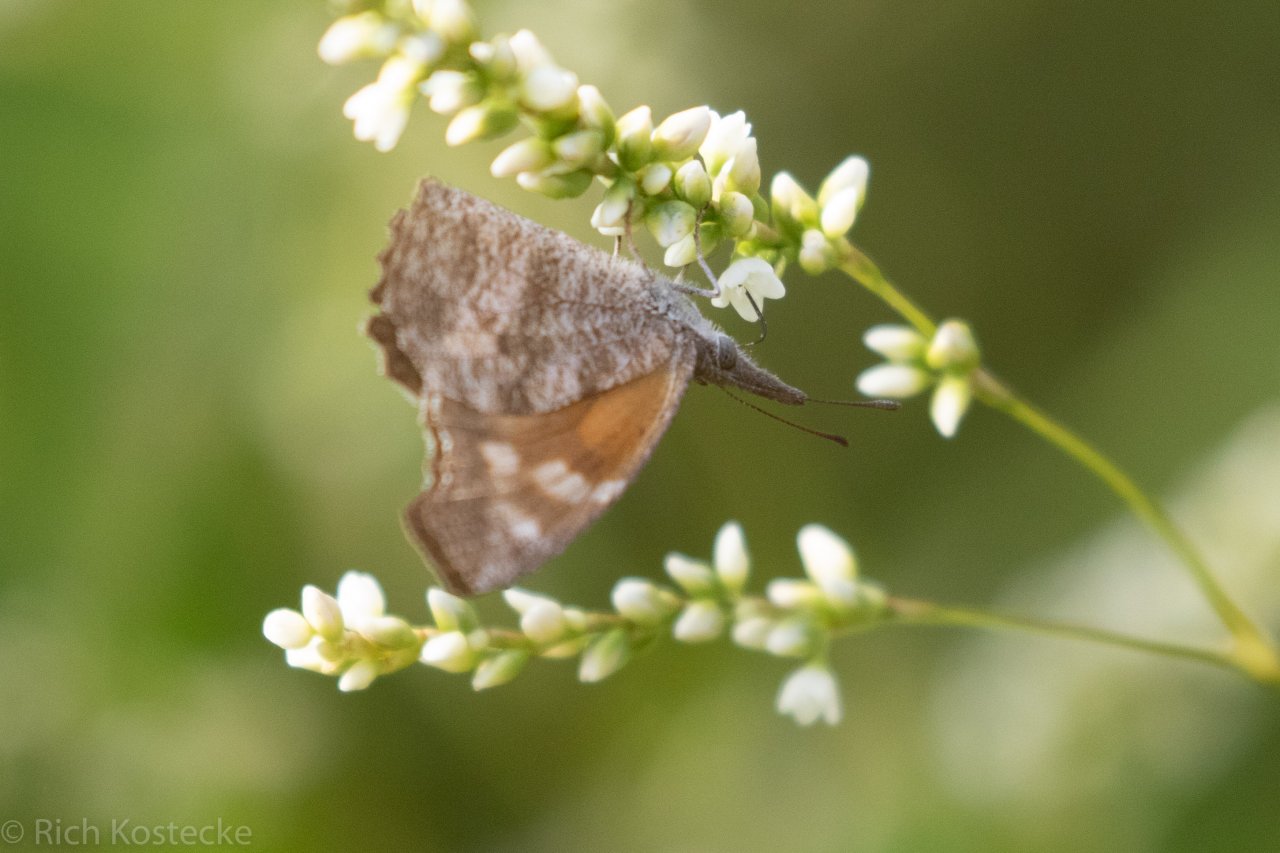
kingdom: Animalia
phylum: Arthropoda
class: Insecta
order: Lepidoptera
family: Nymphalidae
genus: Libytheana
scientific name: Libytheana carinenta
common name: American Snout
